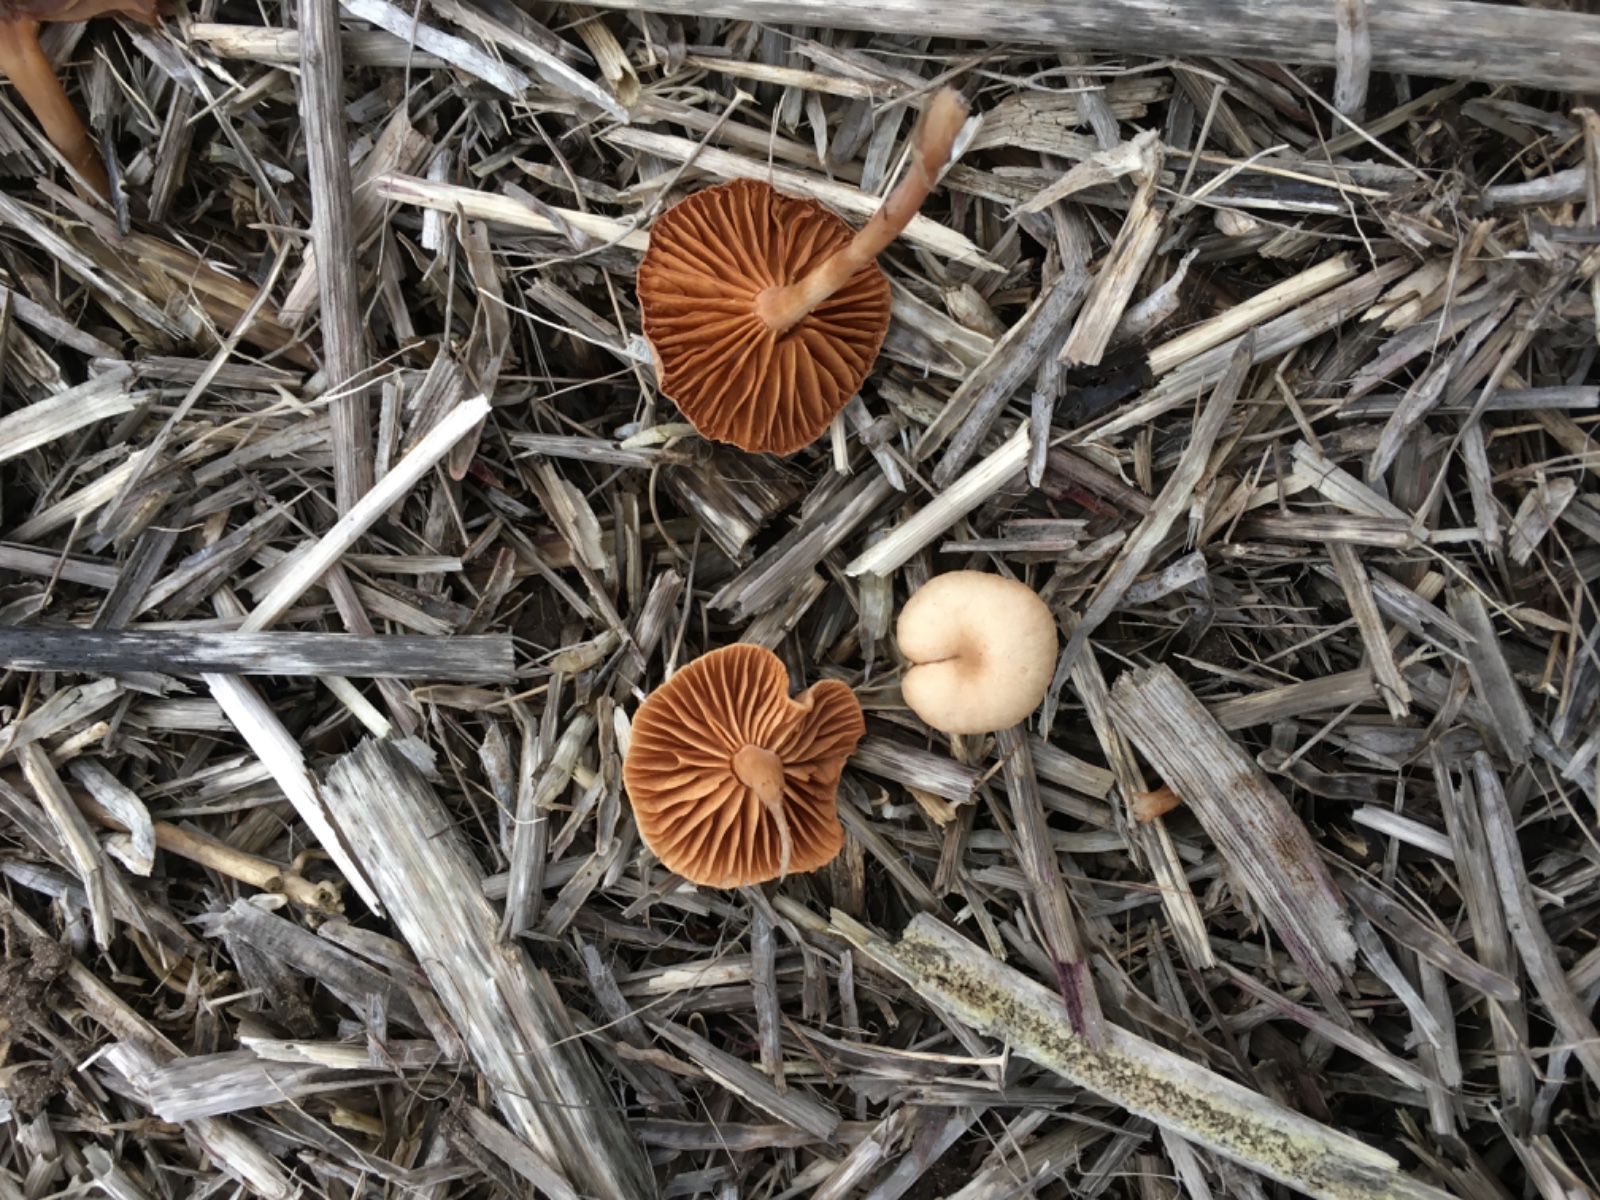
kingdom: Fungi
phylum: Basidiomycota
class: Agaricomycetes
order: Agaricales
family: Tubariaceae
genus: Tubaria
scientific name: Tubaria furfuracea
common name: kliddet fnughat
